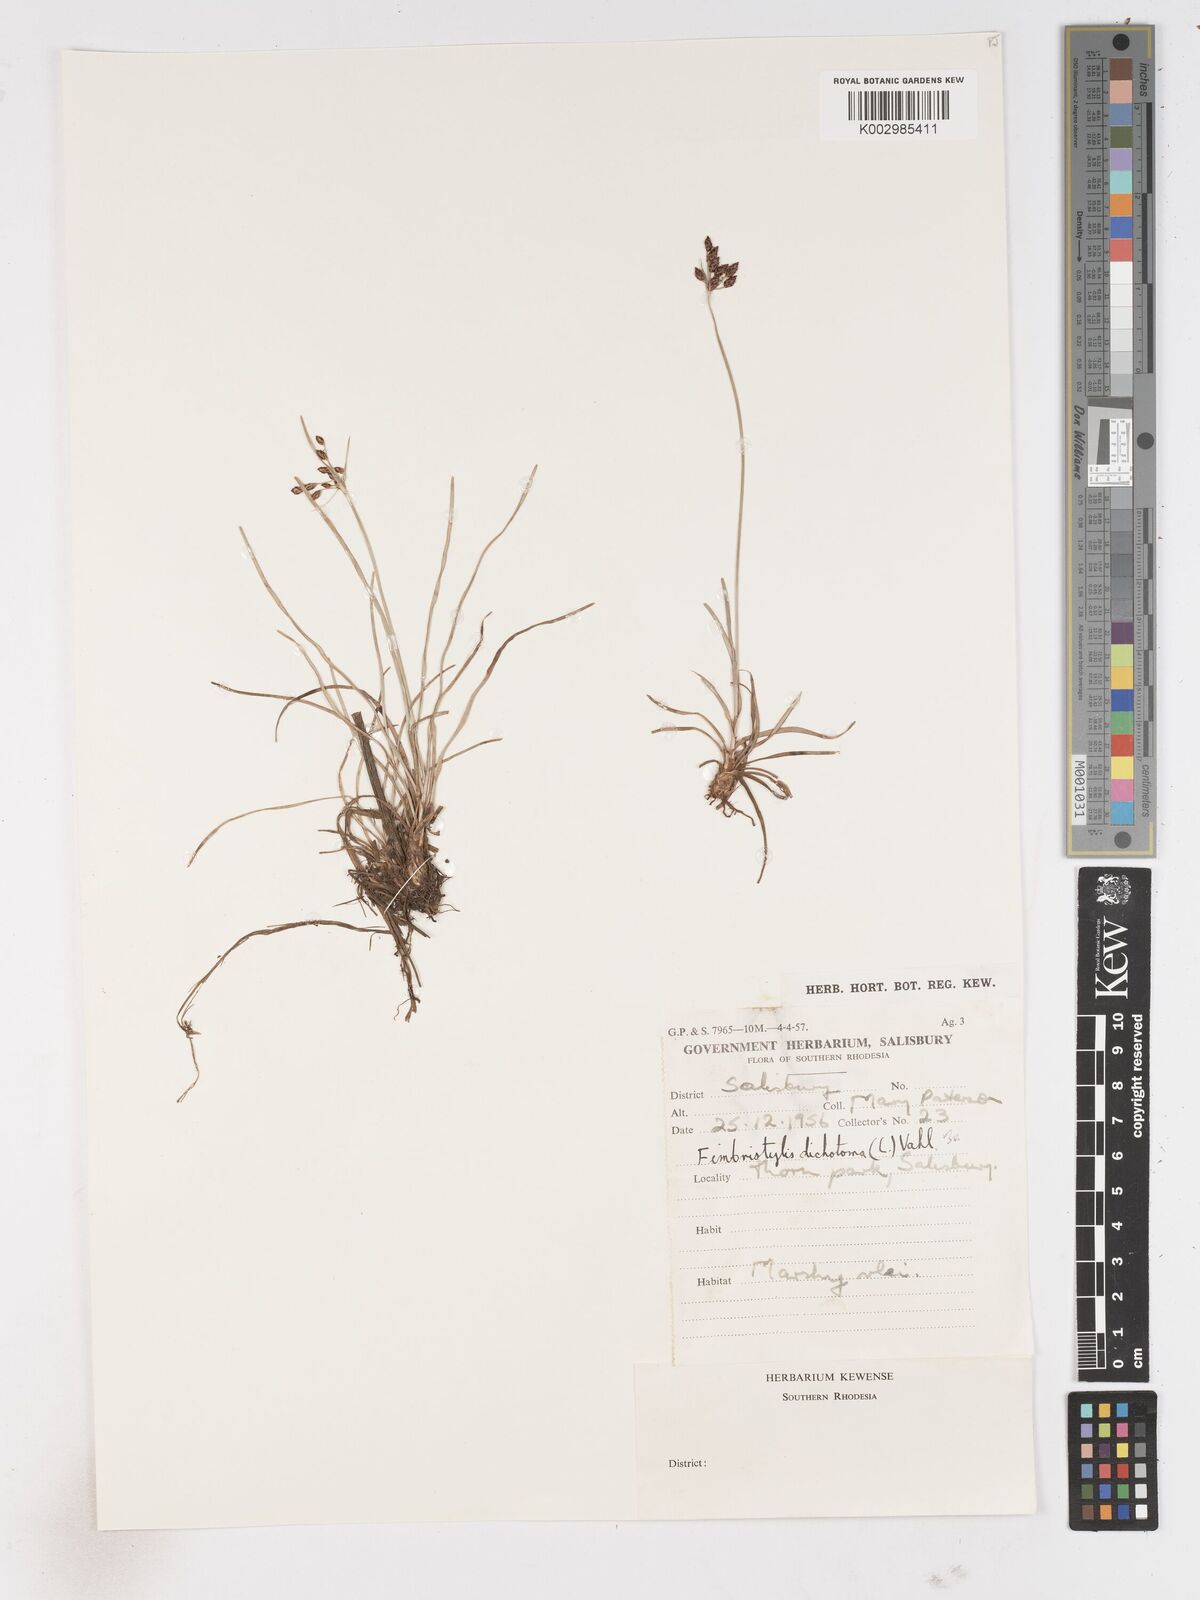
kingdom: Plantae
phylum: Tracheophyta
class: Liliopsida
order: Poales
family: Cyperaceae
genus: Fimbristylis
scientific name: Fimbristylis
